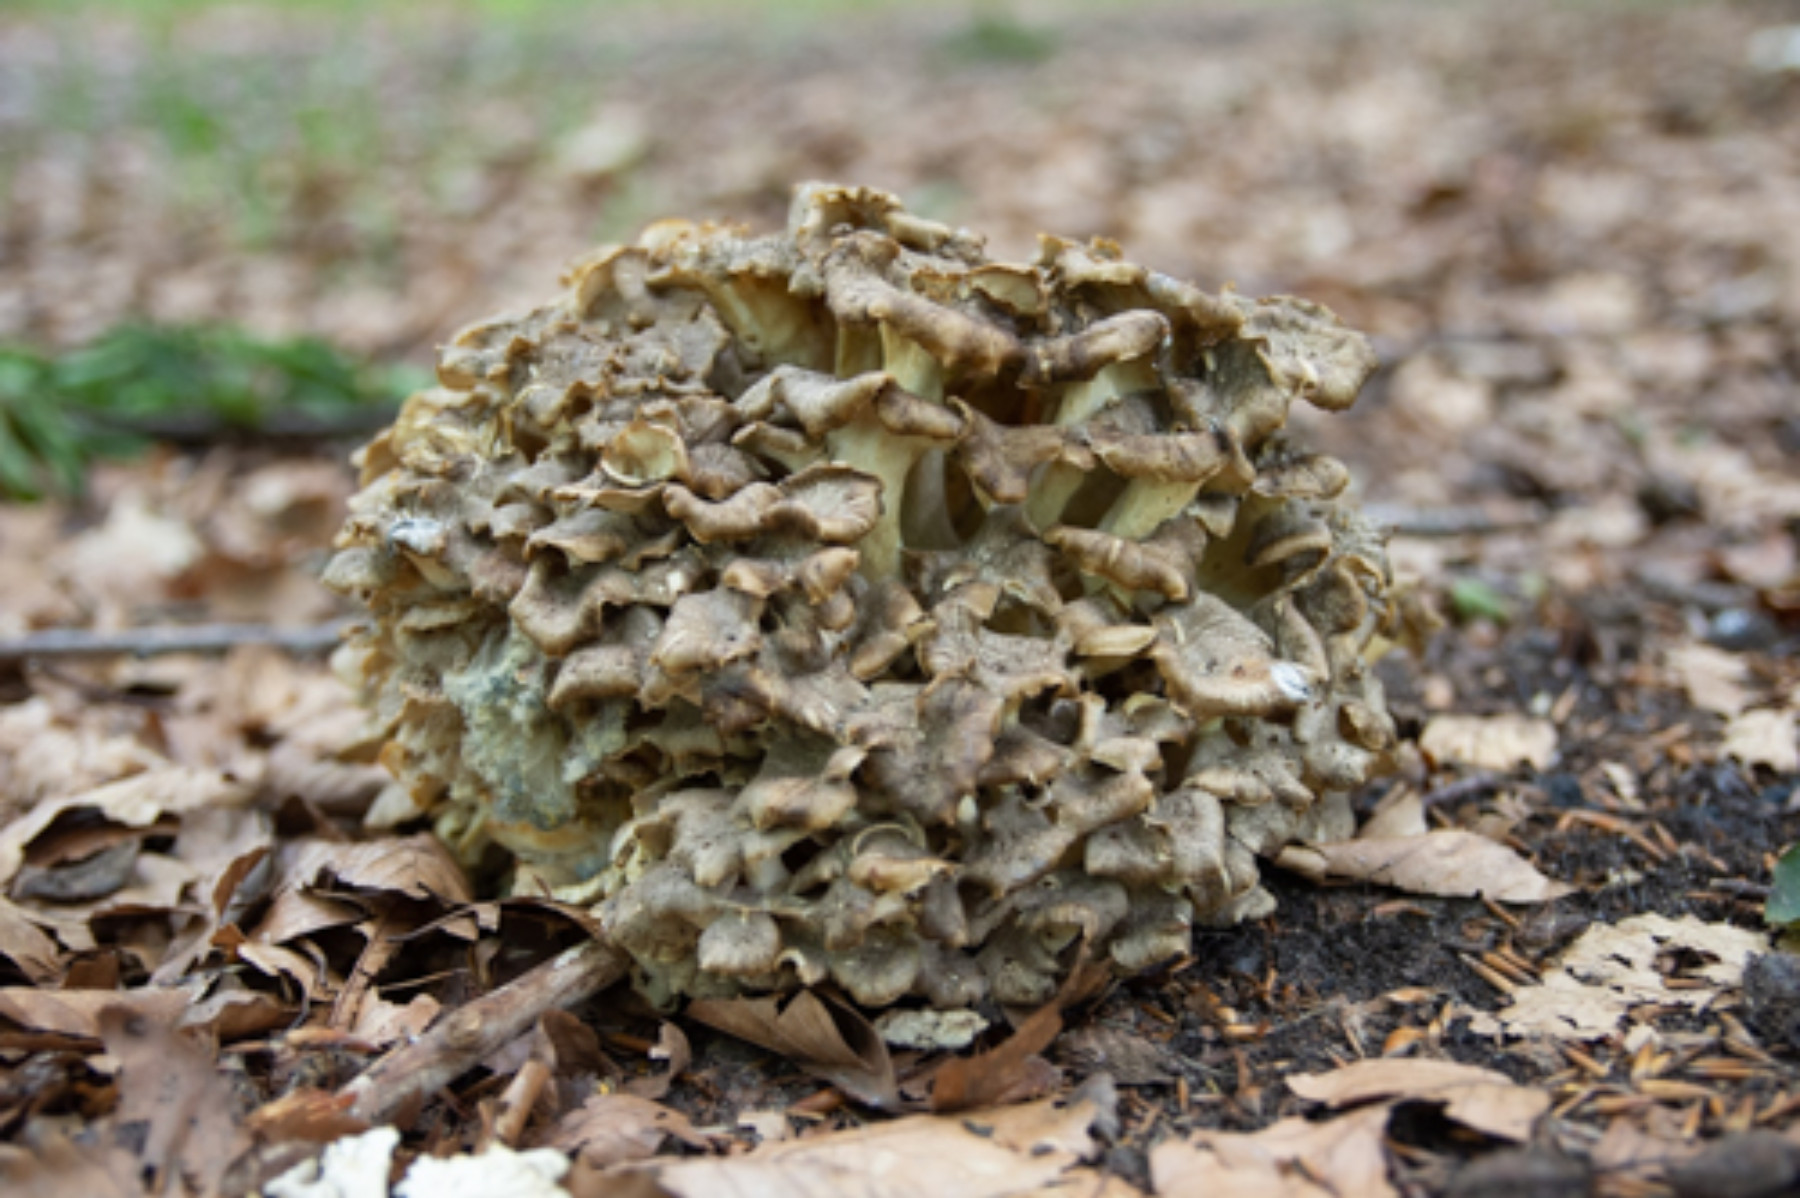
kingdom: Fungi
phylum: Basidiomycota
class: Agaricomycetes
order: Polyporales
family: Polyporaceae
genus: Polyporus
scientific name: Polyporus umbellatus
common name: skærmformet stilkporesvamp
